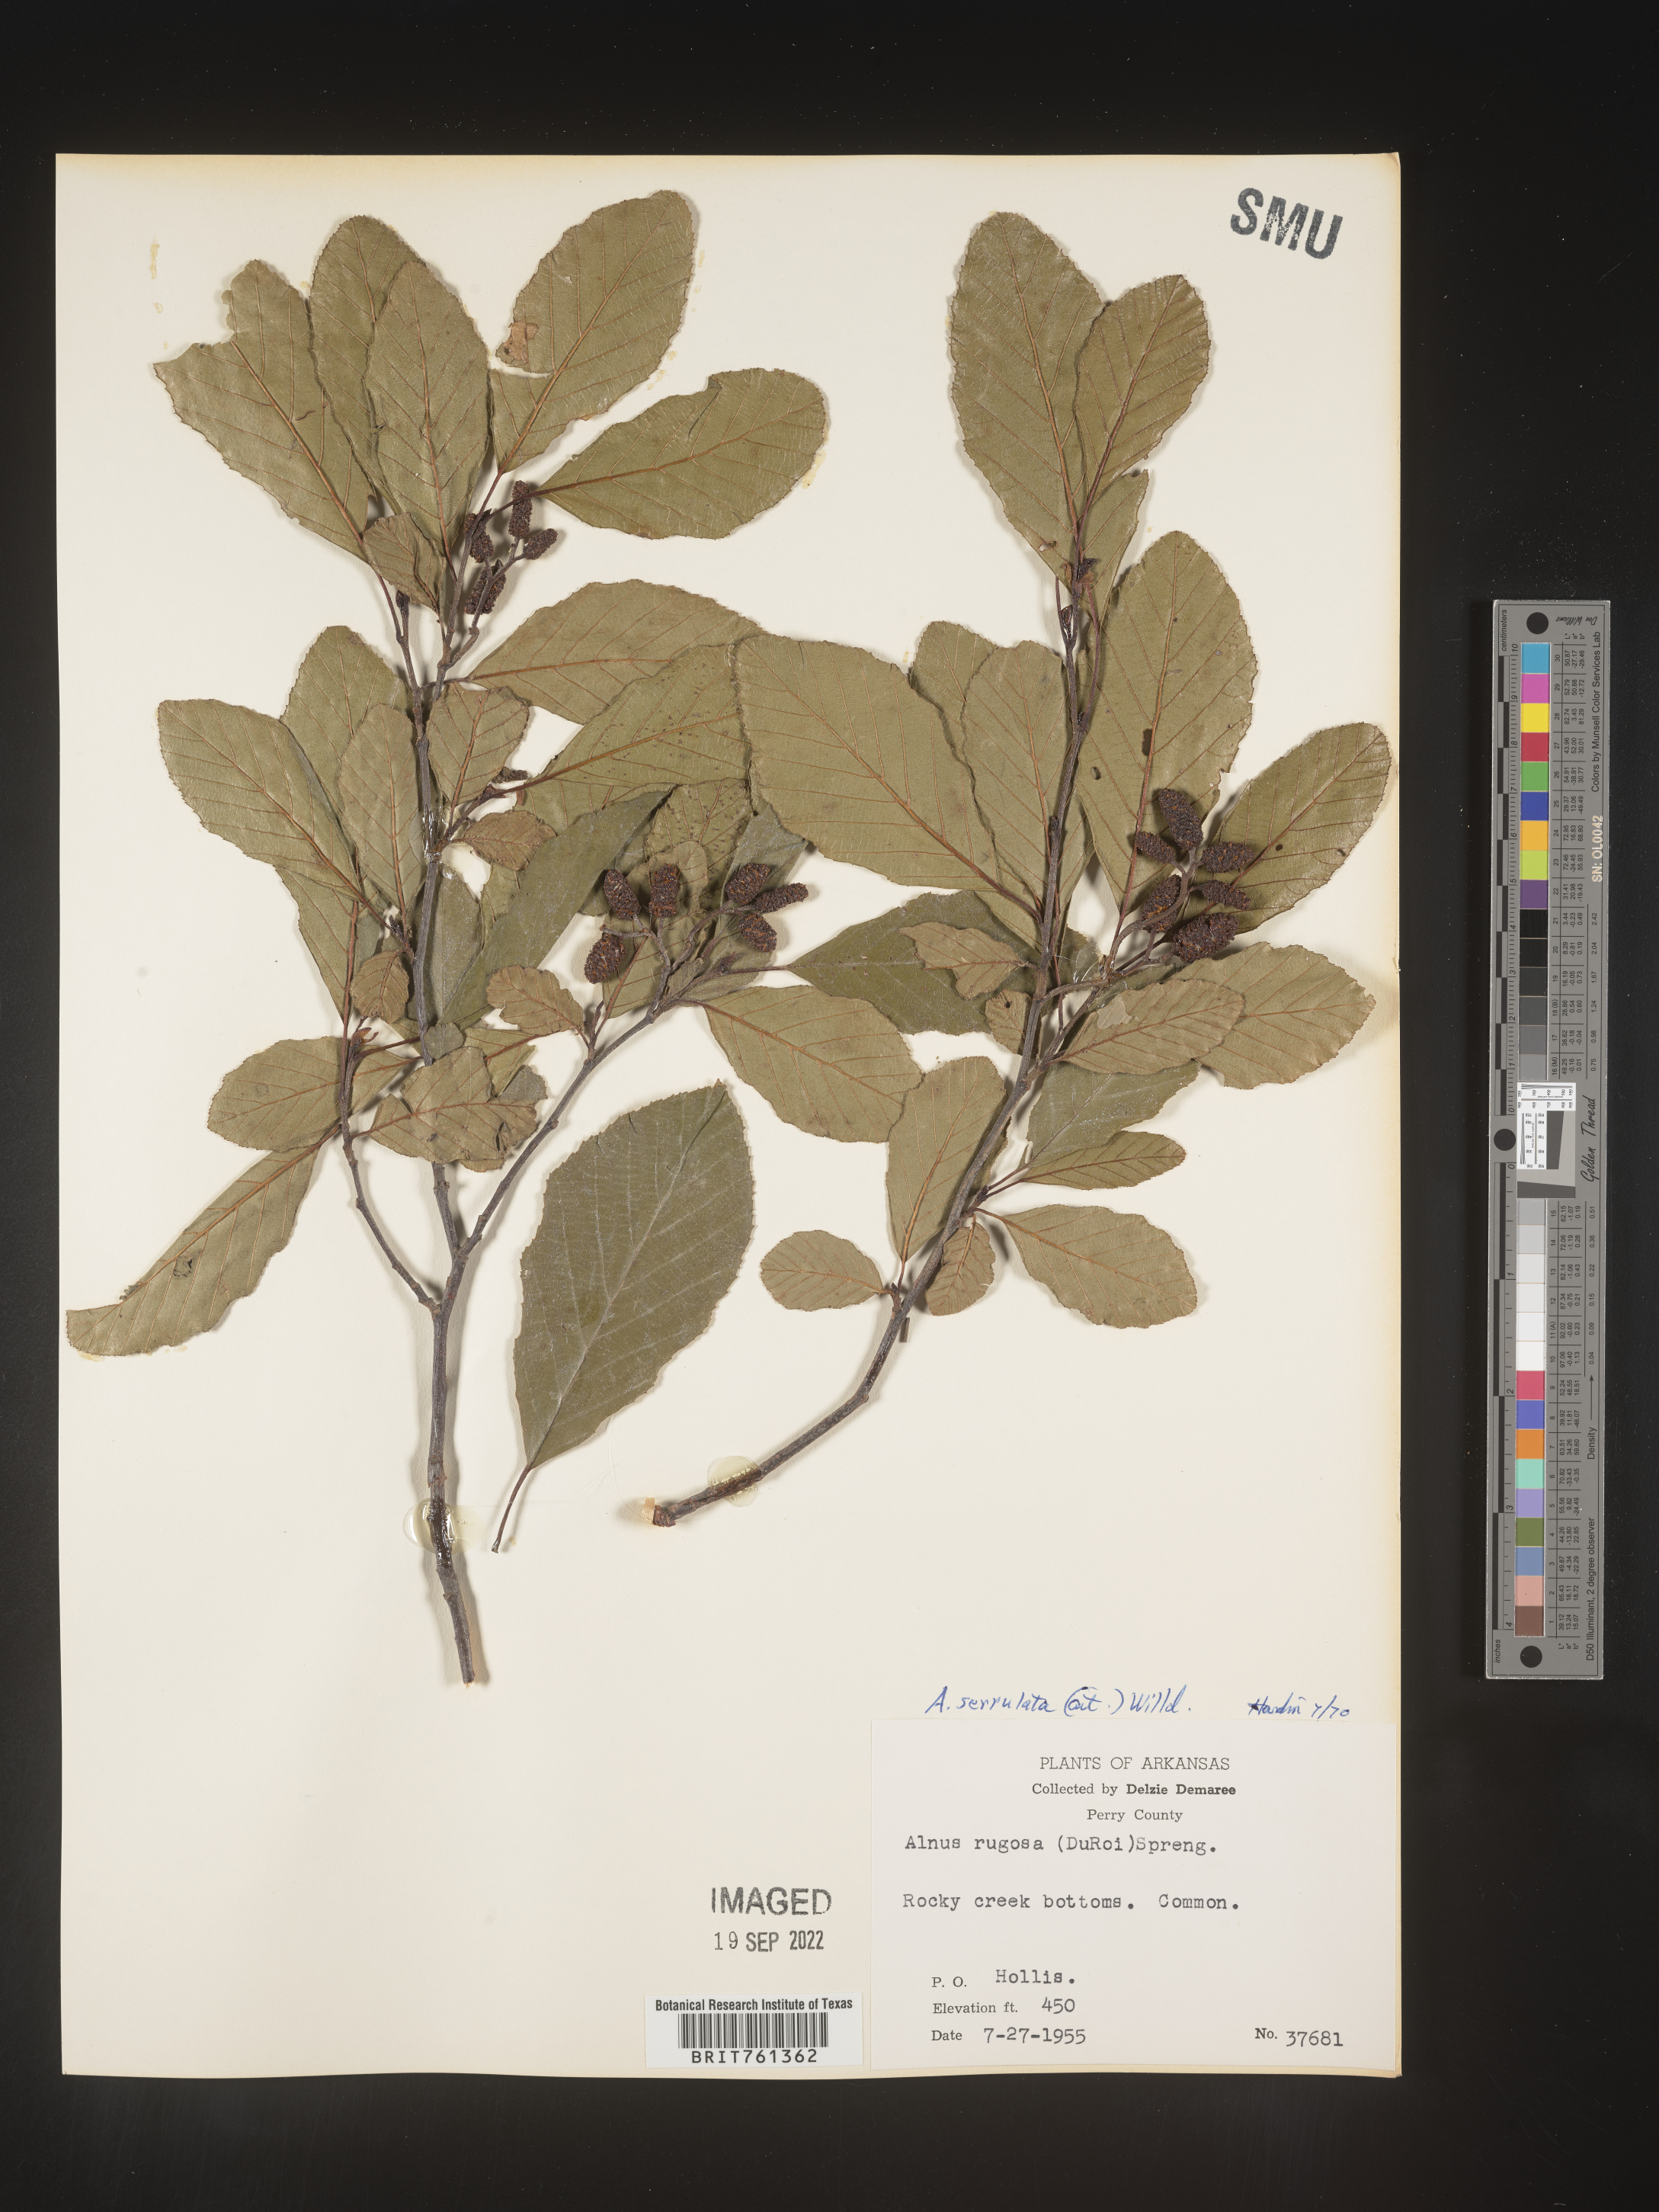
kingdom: Plantae
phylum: Tracheophyta
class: Magnoliopsida
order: Fagales
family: Betulaceae
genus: Alnus
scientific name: Alnus serrulata
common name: Hazel alder
